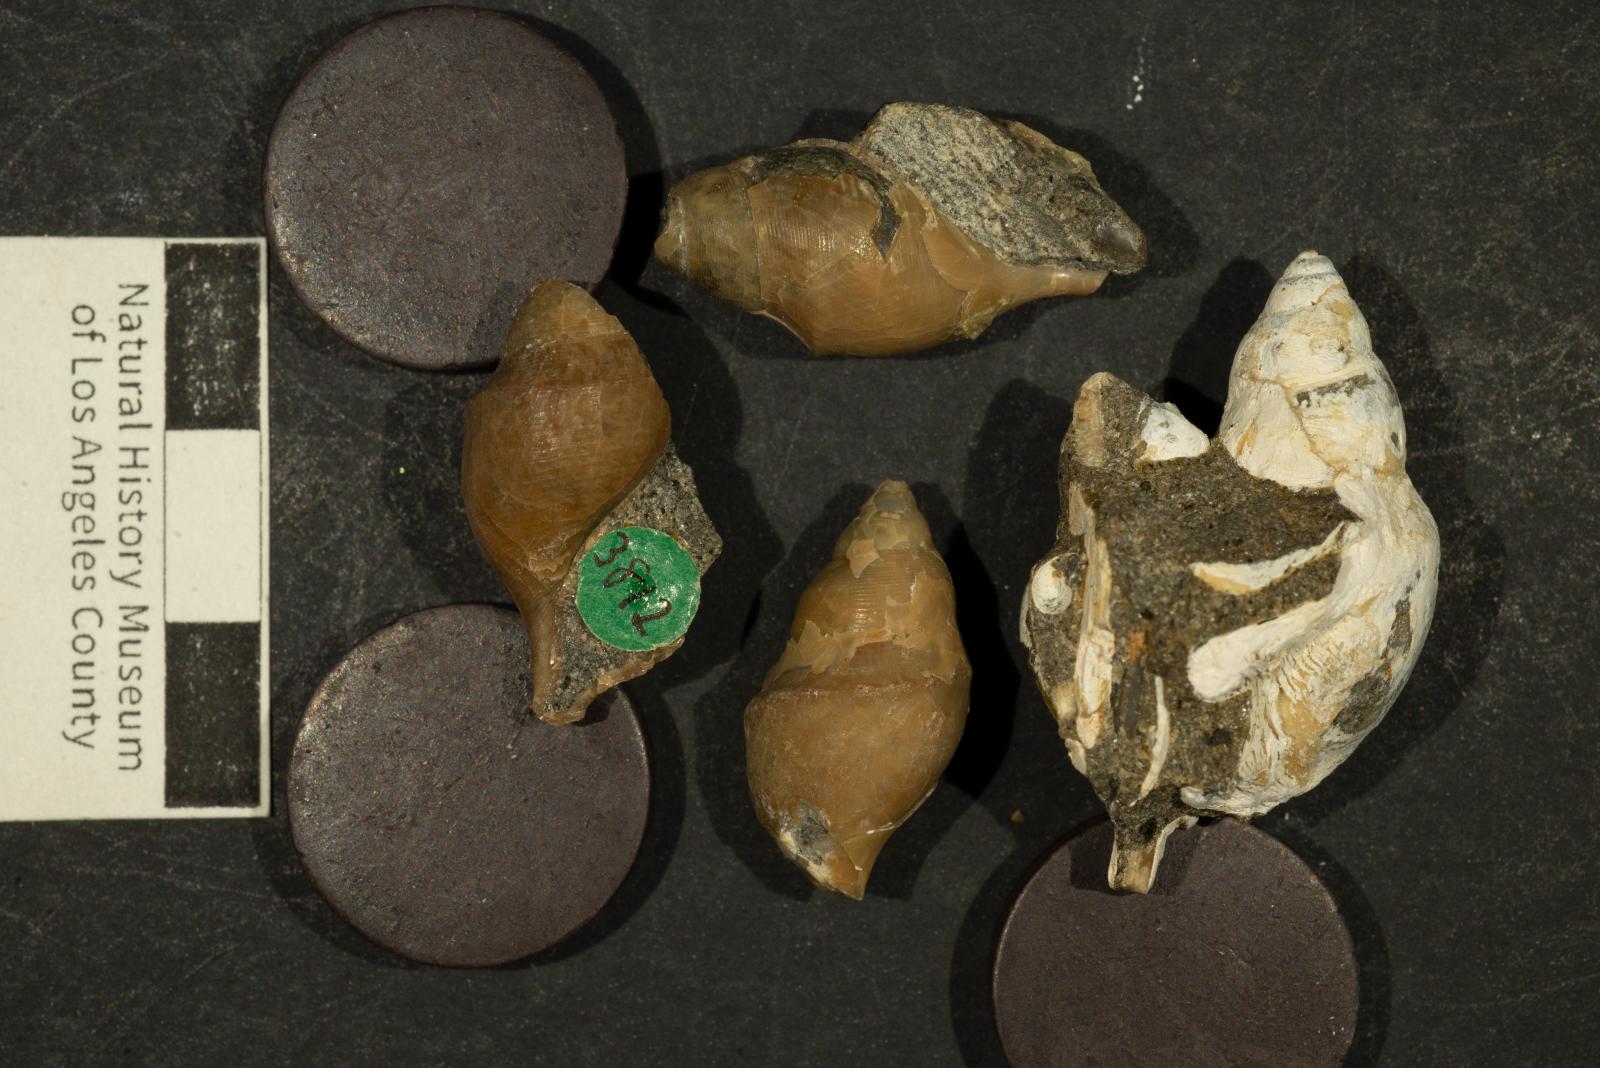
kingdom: Animalia
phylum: Mollusca
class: Gastropoda
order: Littorinimorpha
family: Aporrhaidae
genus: Lispodesthes
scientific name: Lispodesthes Pugnellus rotundus
